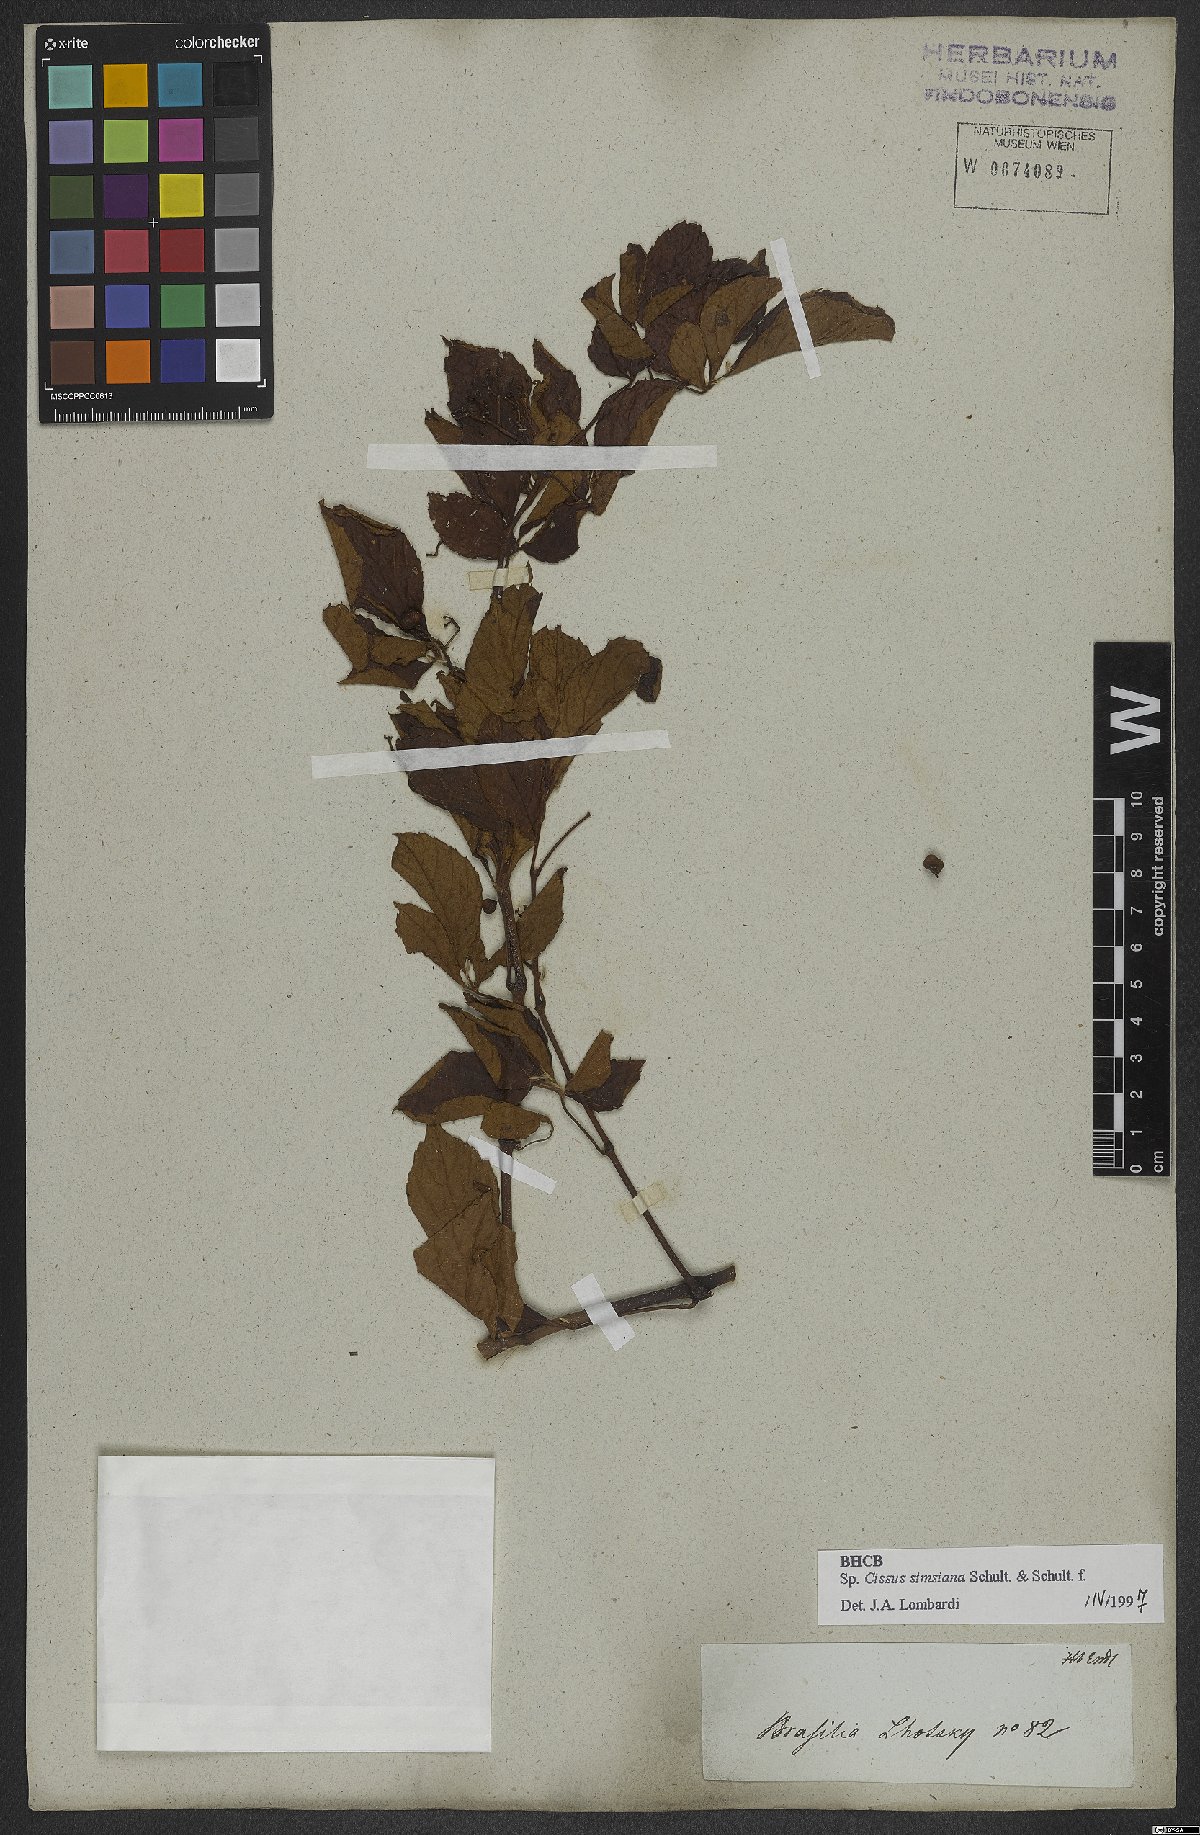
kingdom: Plantae
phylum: Tracheophyta
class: Magnoliopsida
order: Vitales
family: Vitaceae
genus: Clematicissus
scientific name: Clematicissus simsiana
